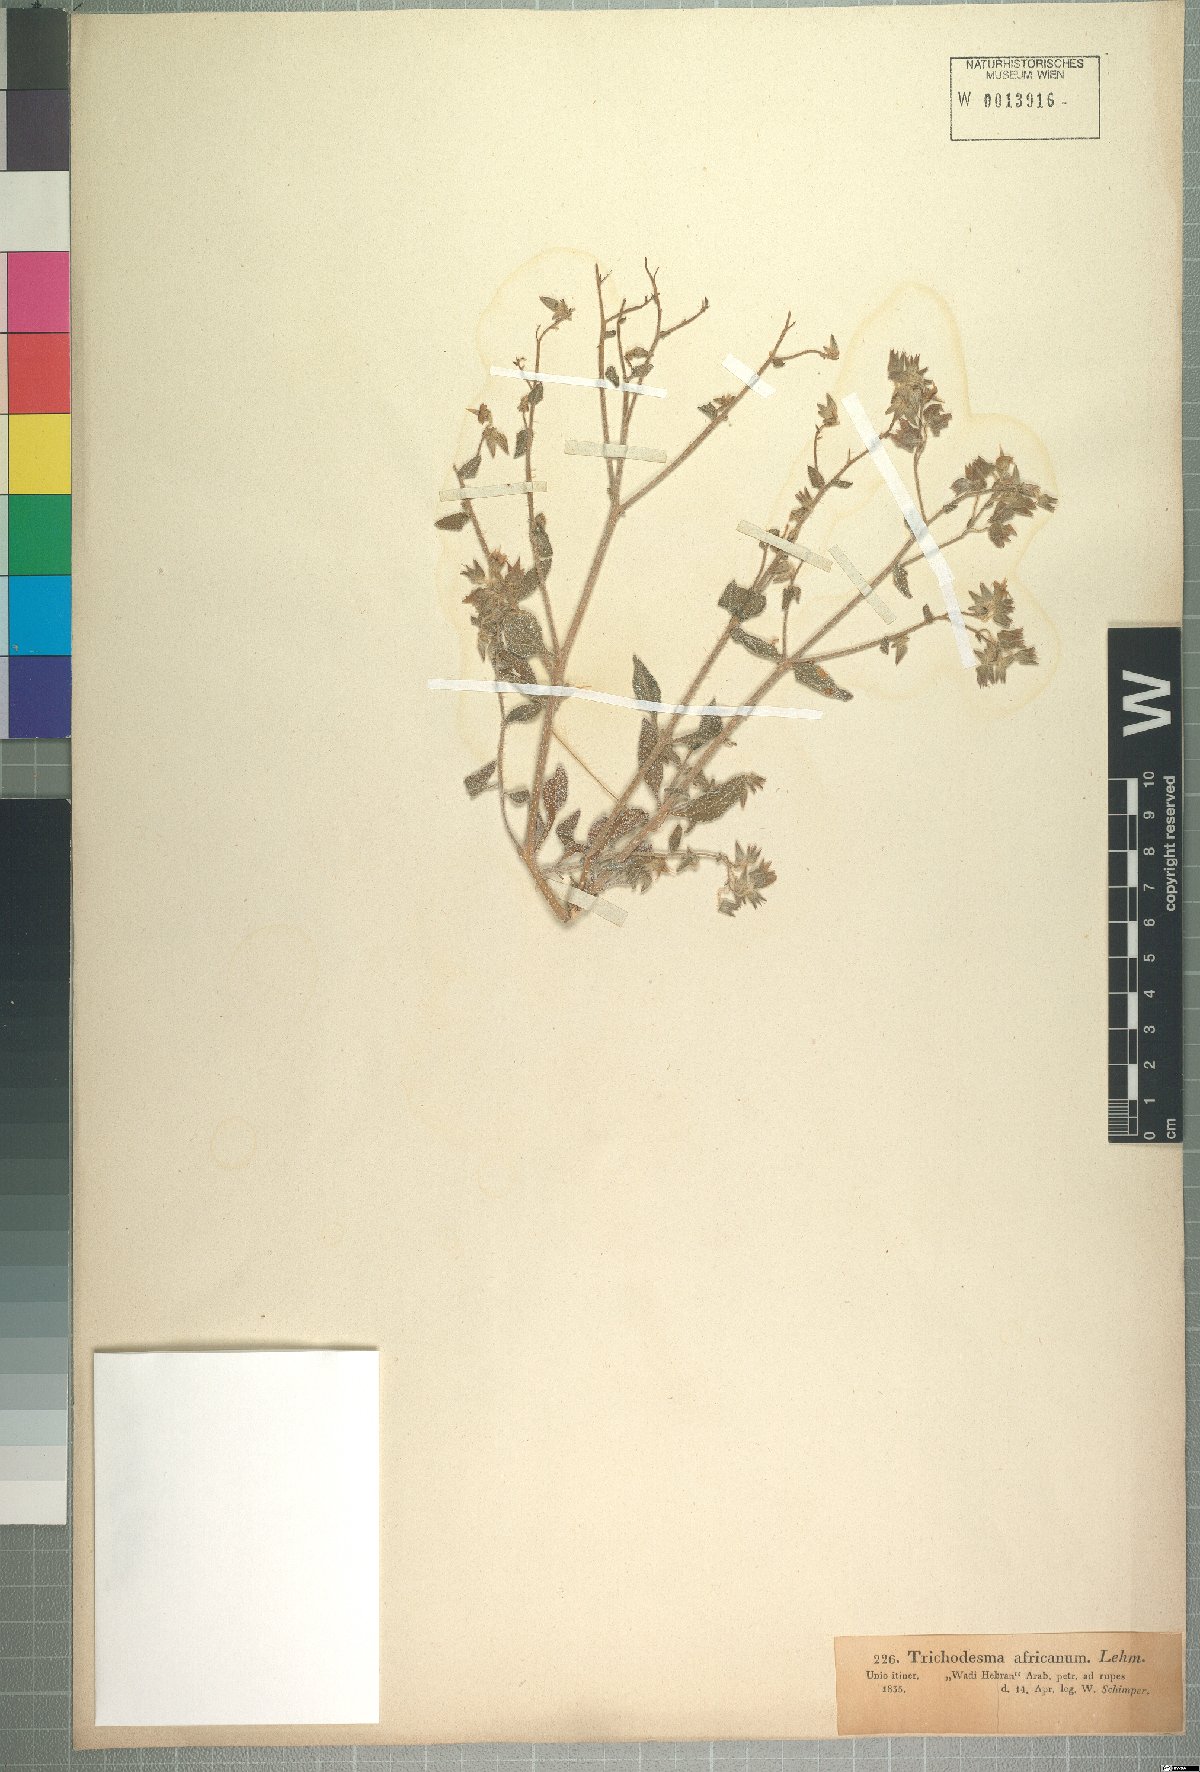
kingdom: Plantae
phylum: Tracheophyta
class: Magnoliopsida
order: Boraginales
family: Boraginaceae
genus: Trichodesma
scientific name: Trichodesma africanum
